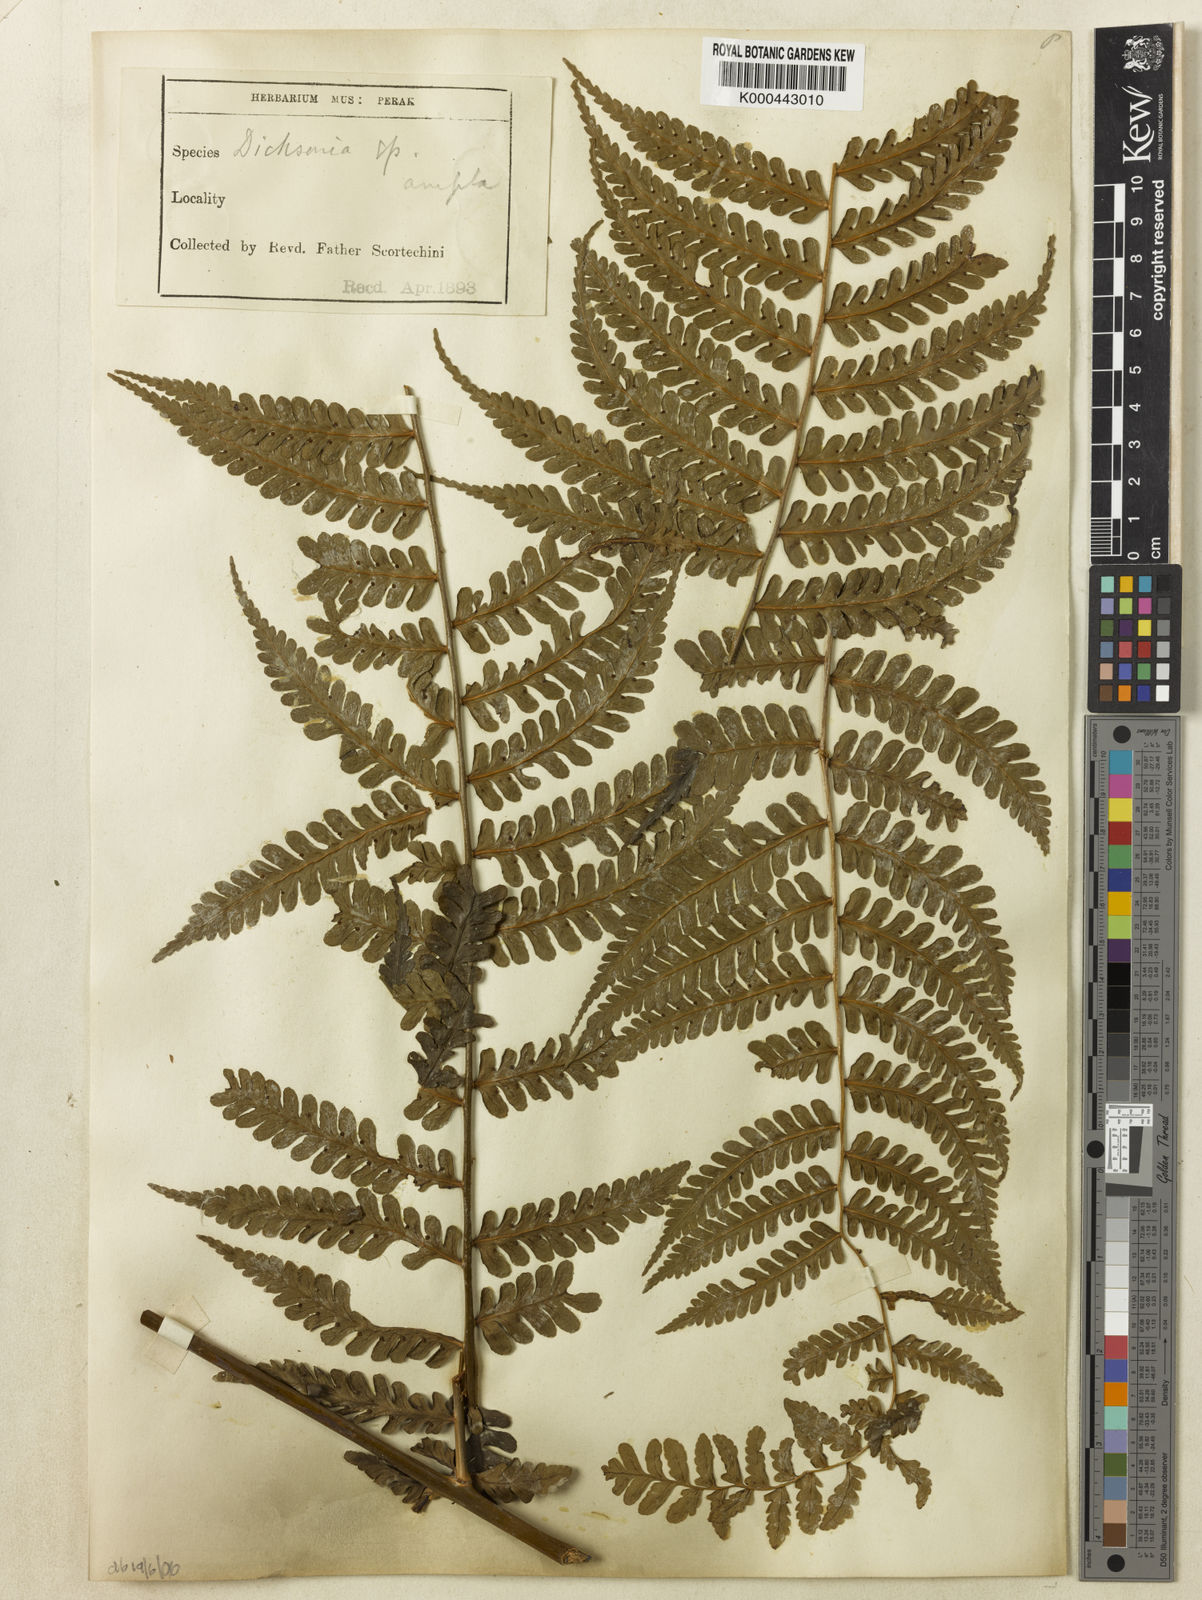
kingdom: Plantae
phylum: Tracheophyta
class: Polypodiopsida
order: Polypodiales
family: Dennstaedtiaceae
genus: Dennstaedtia
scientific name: Dennstaedtia ampla
